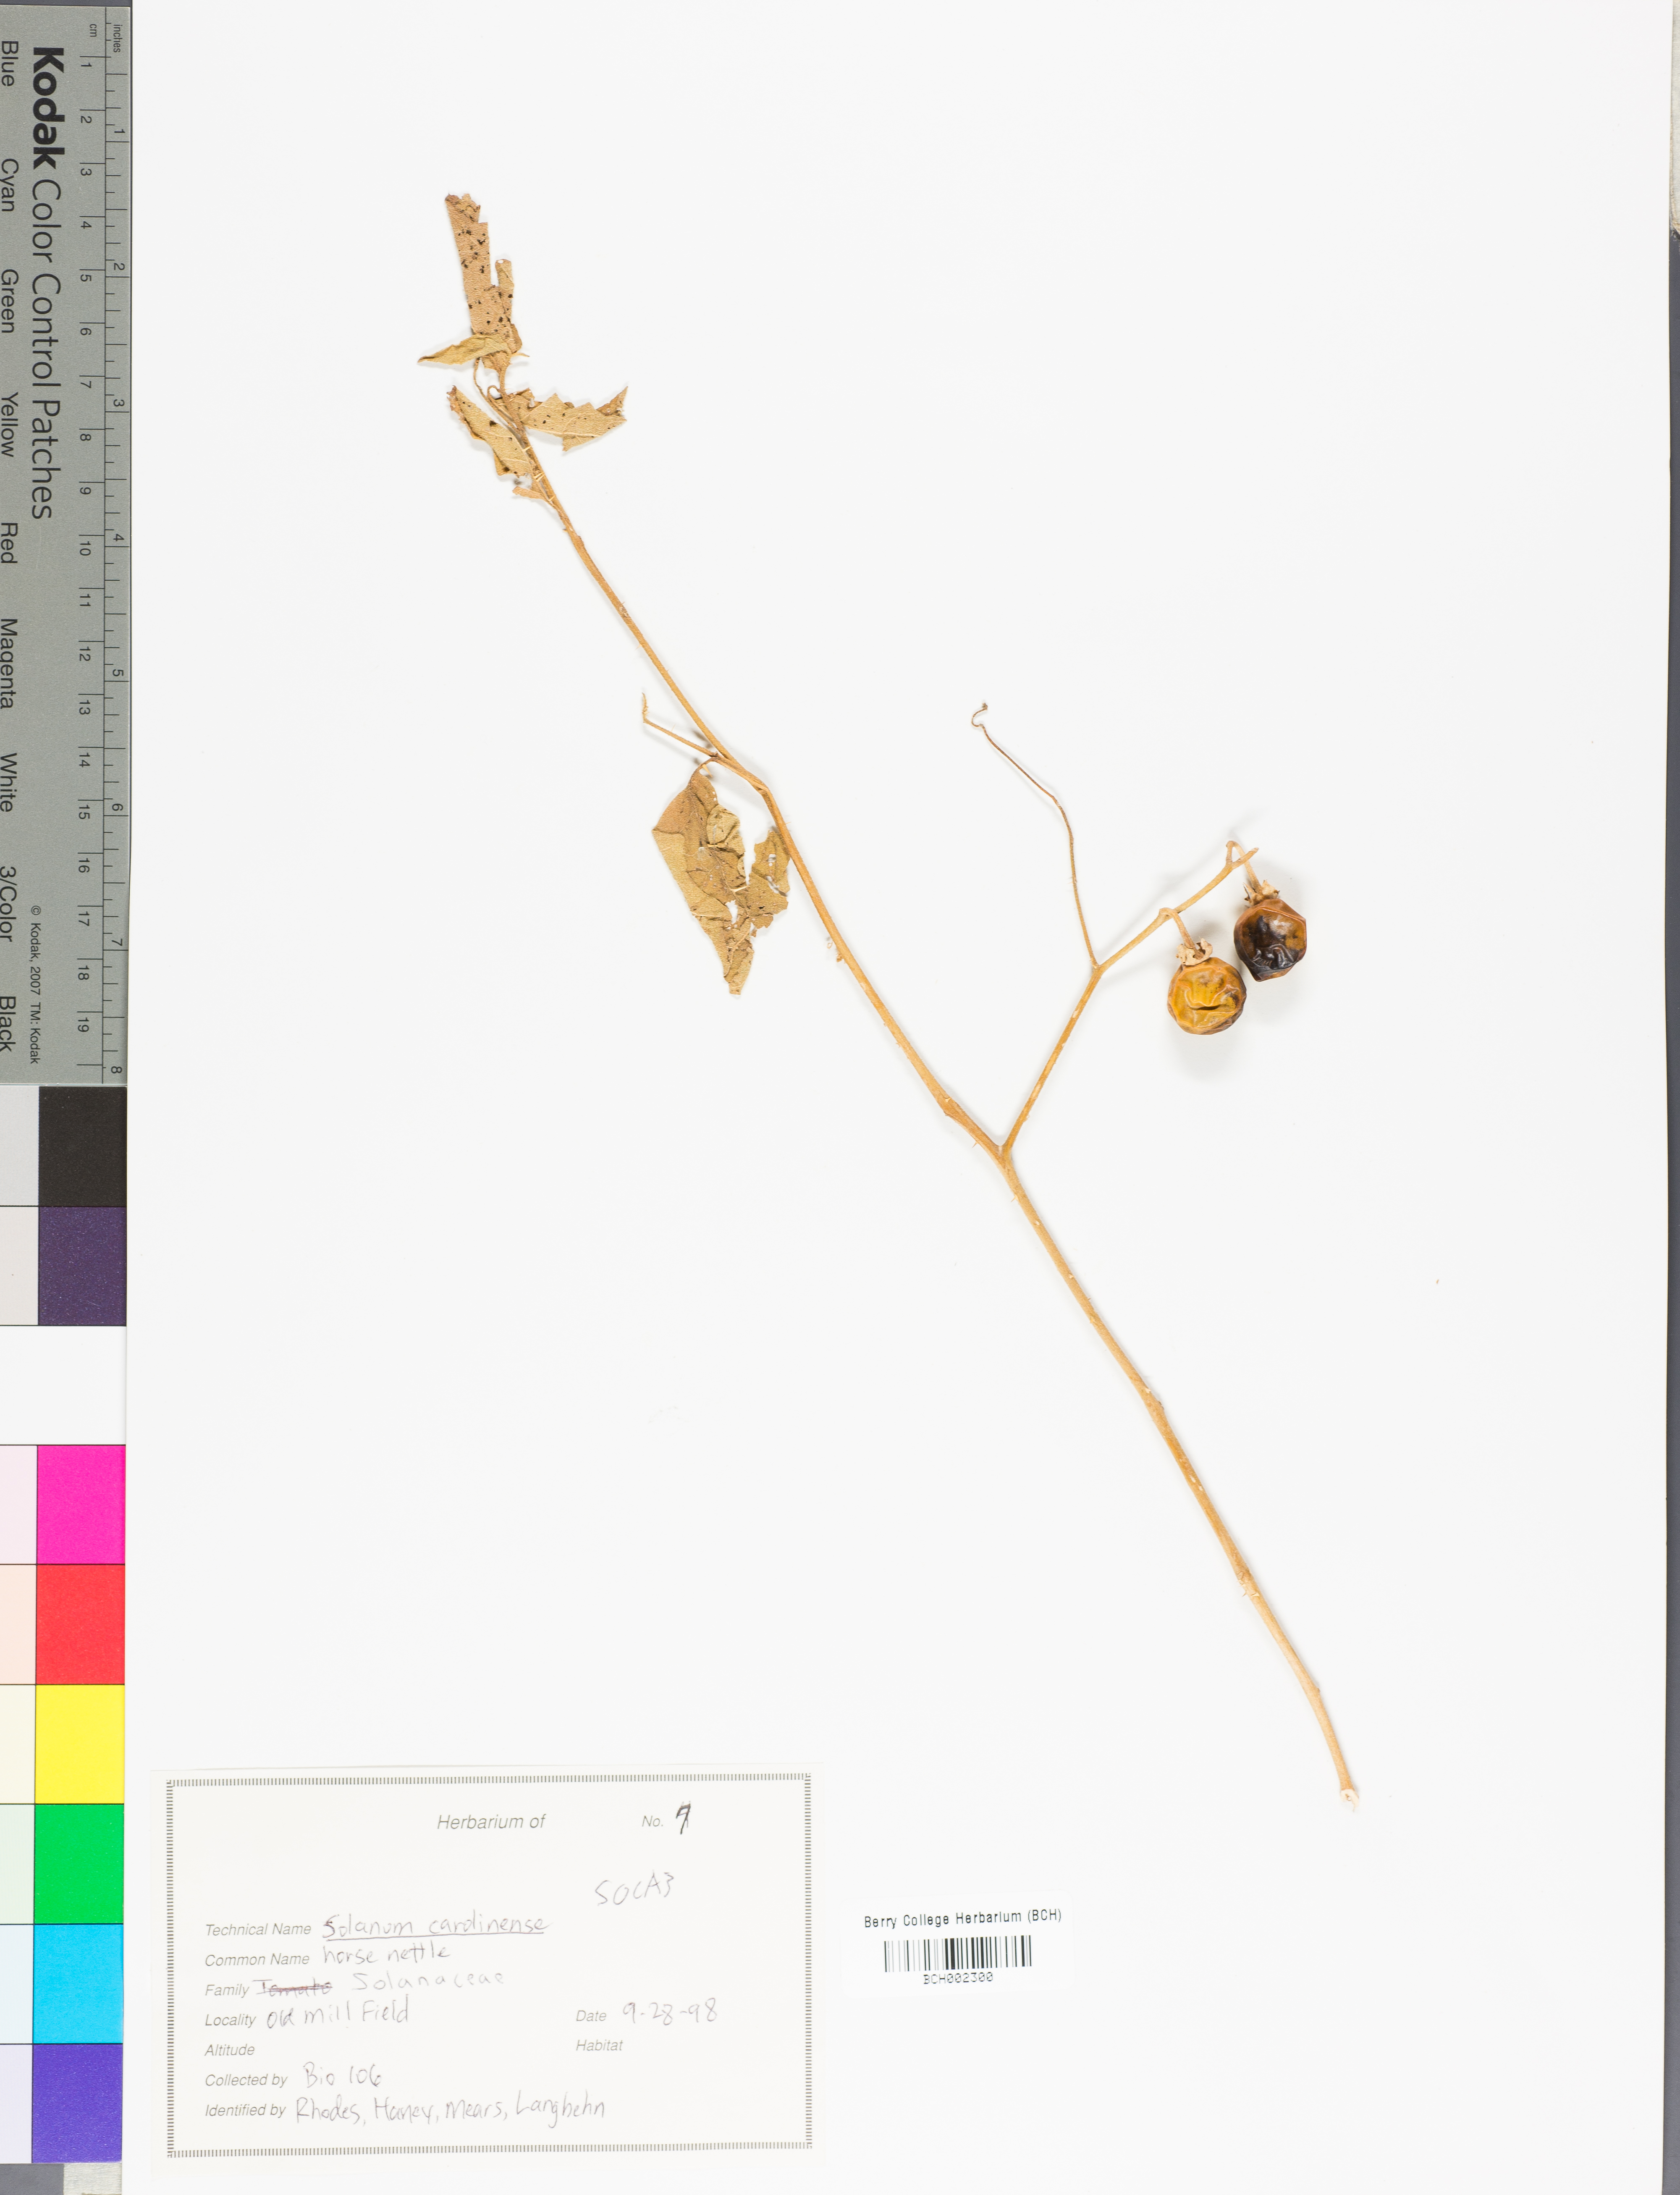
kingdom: Plantae
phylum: Tracheophyta
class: Magnoliopsida
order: Solanales
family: Solanaceae
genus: Solanum
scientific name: Solanum carolinense
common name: Horse-nettle
